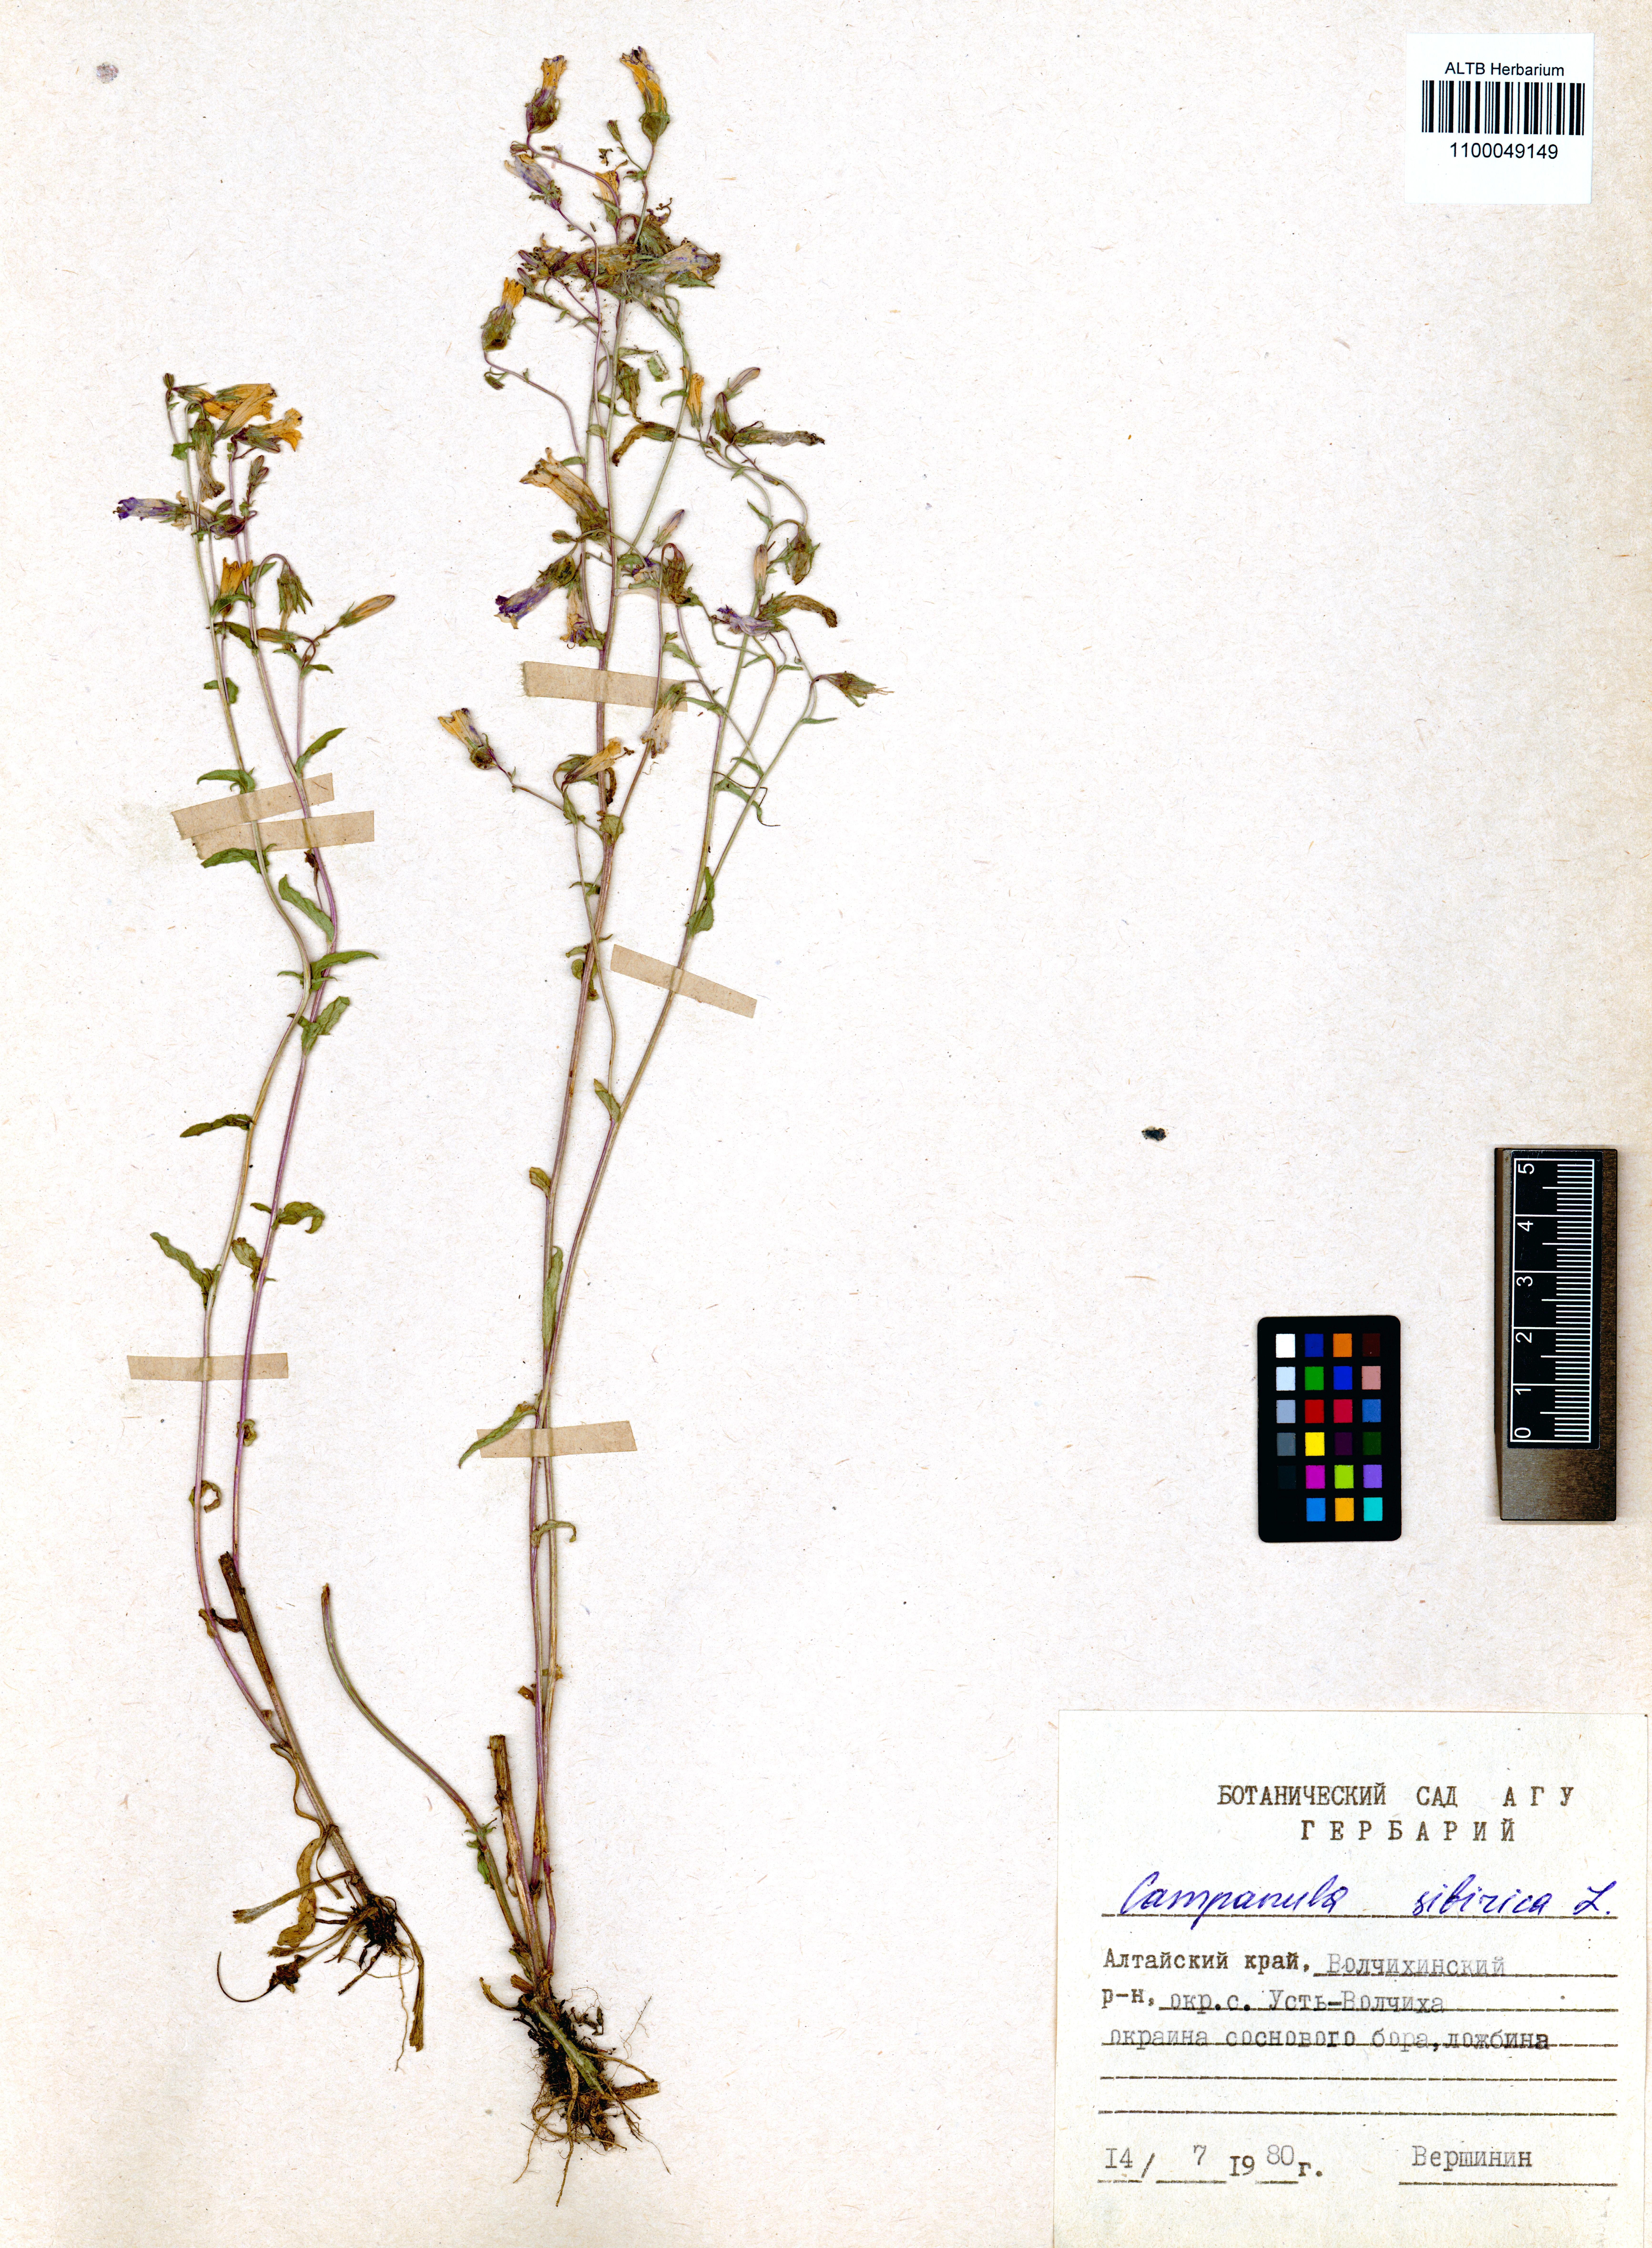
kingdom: Plantae
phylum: Tracheophyta
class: Magnoliopsida
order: Asterales
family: Campanulaceae
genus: Campanula
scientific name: Campanula sibirica
